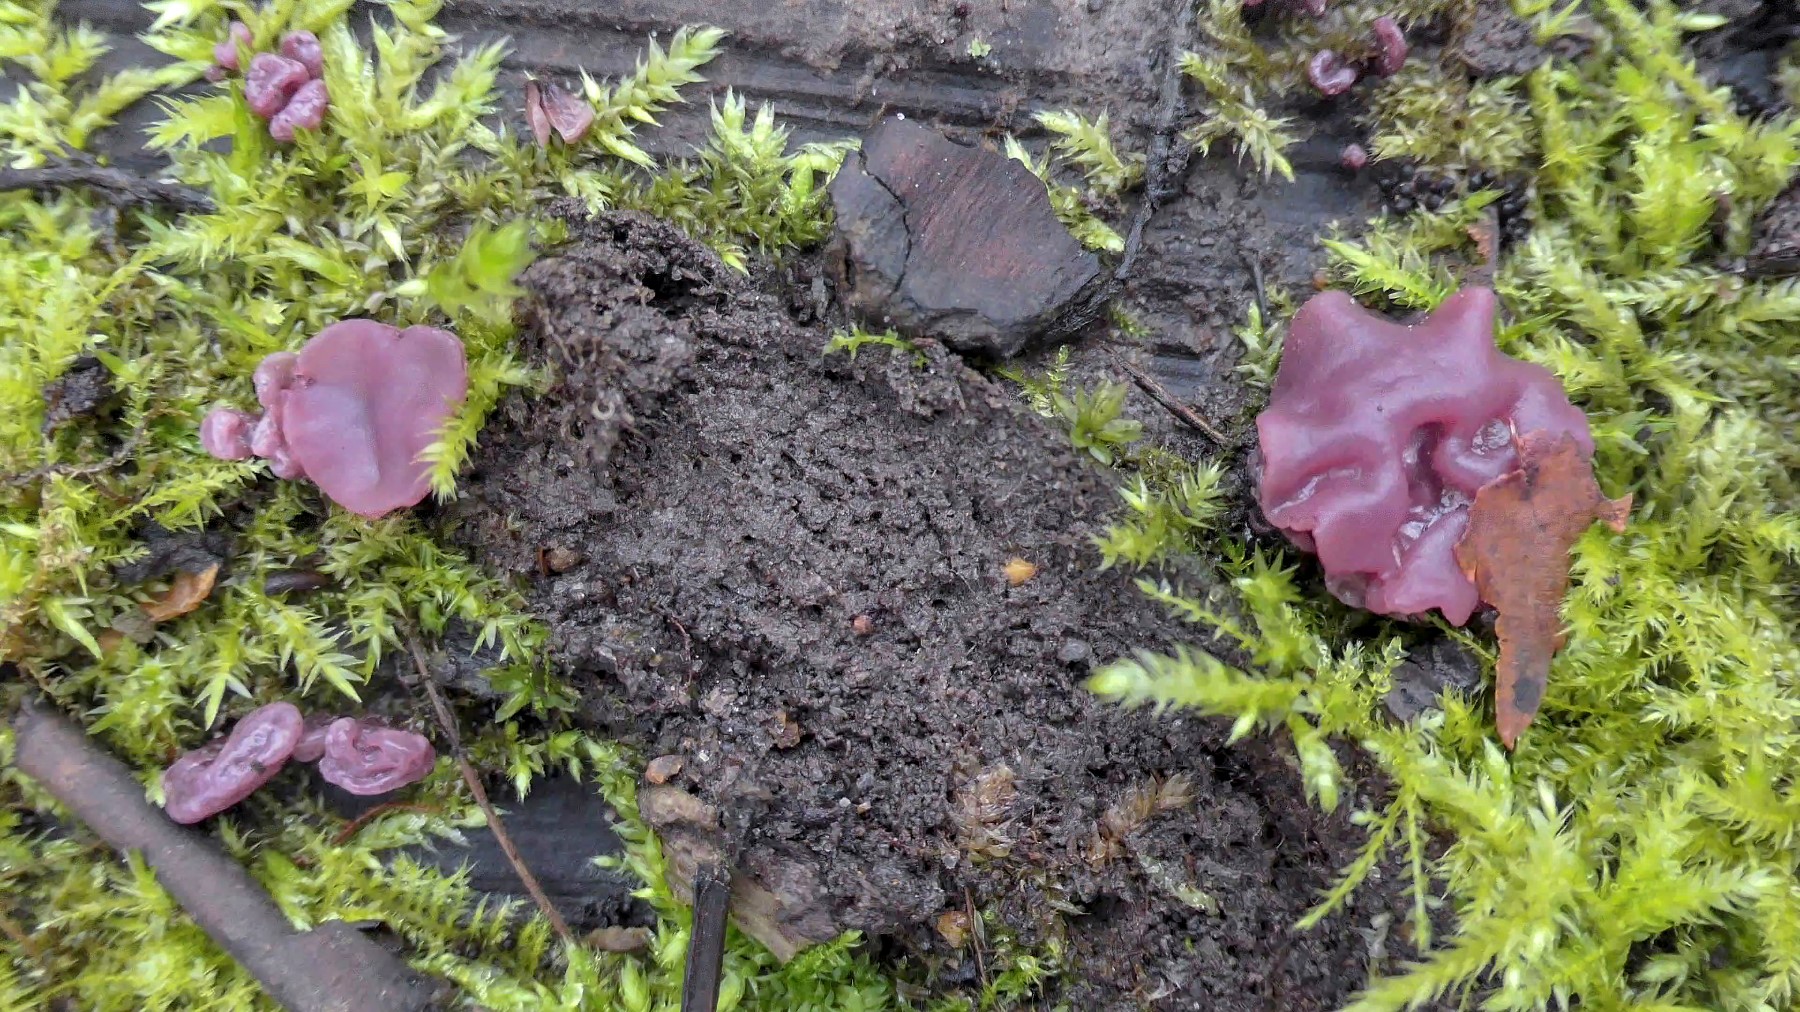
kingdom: Fungi
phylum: Ascomycota
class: Leotiomycetes
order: Helotiales
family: Gelatinodiscaceae
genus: Ascocoryne
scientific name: Ascocoryne sarcoides
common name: rødlilla sejskive
